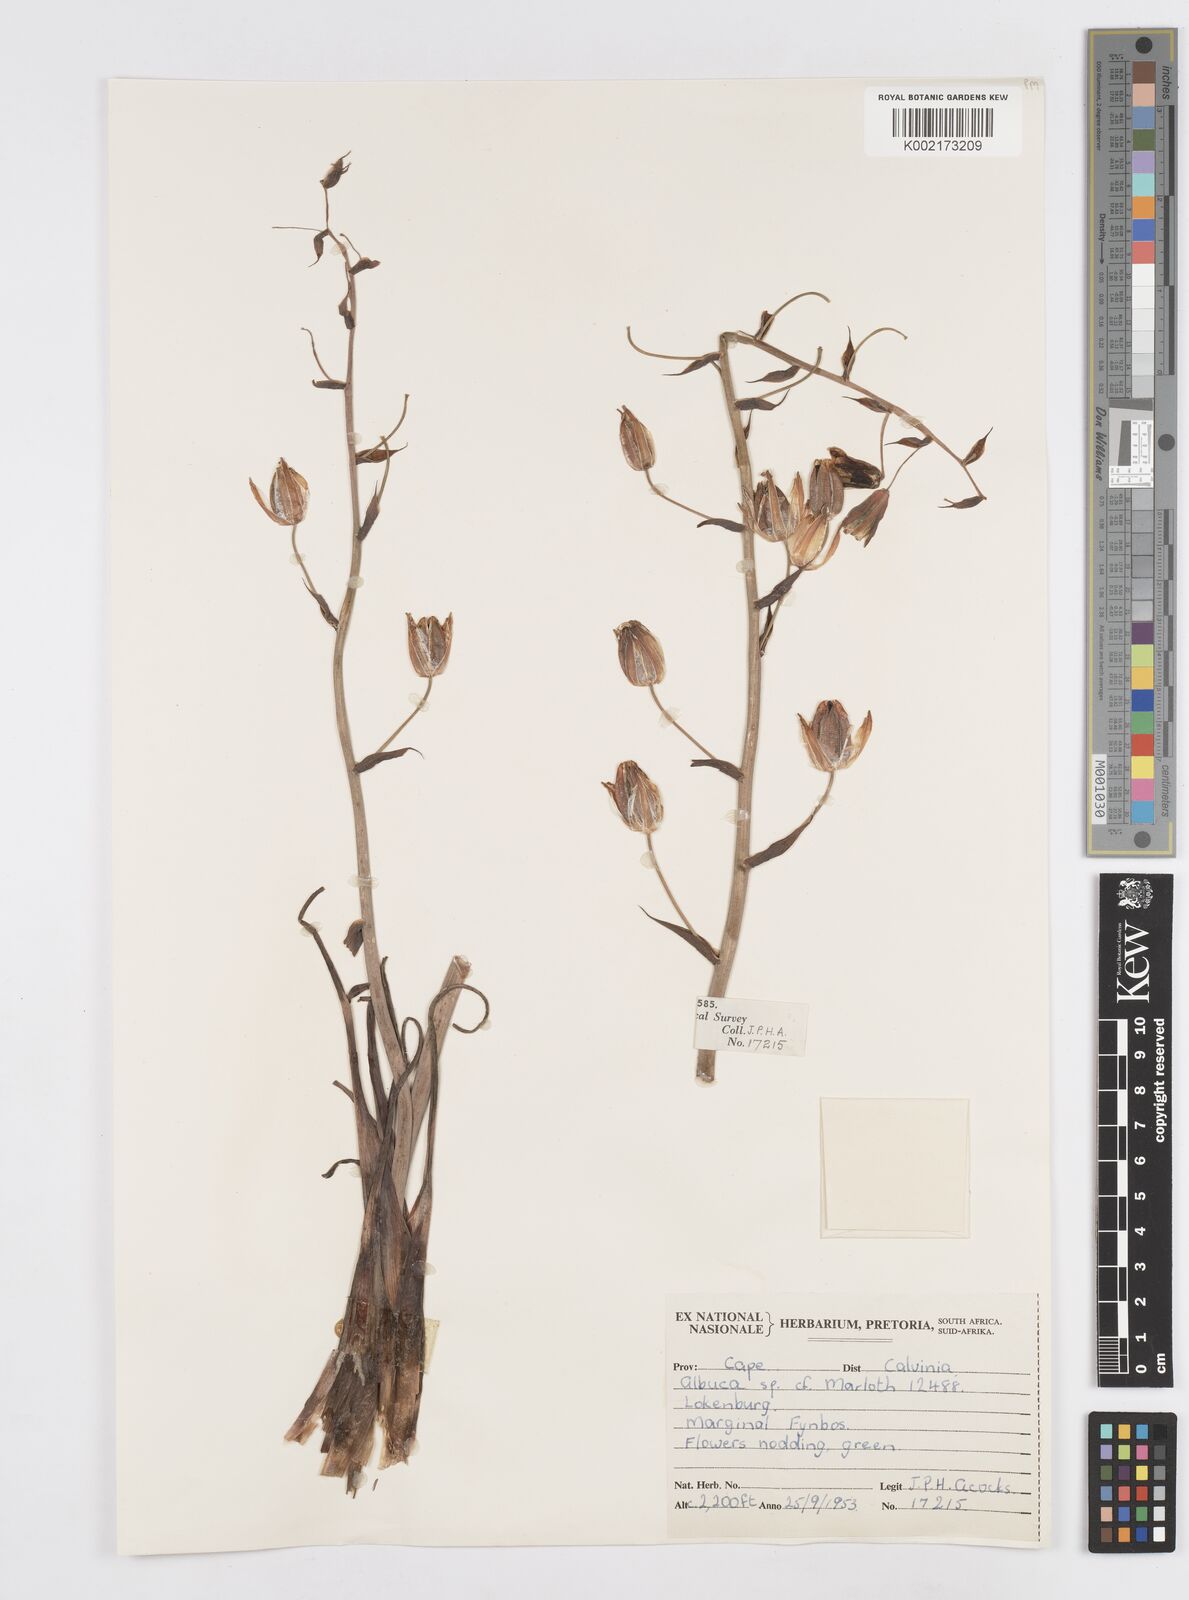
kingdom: Plantae
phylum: Tracheophyta
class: Liliopsida
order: Asparagales
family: Asparagaceae
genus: Albuca
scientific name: Albuca
